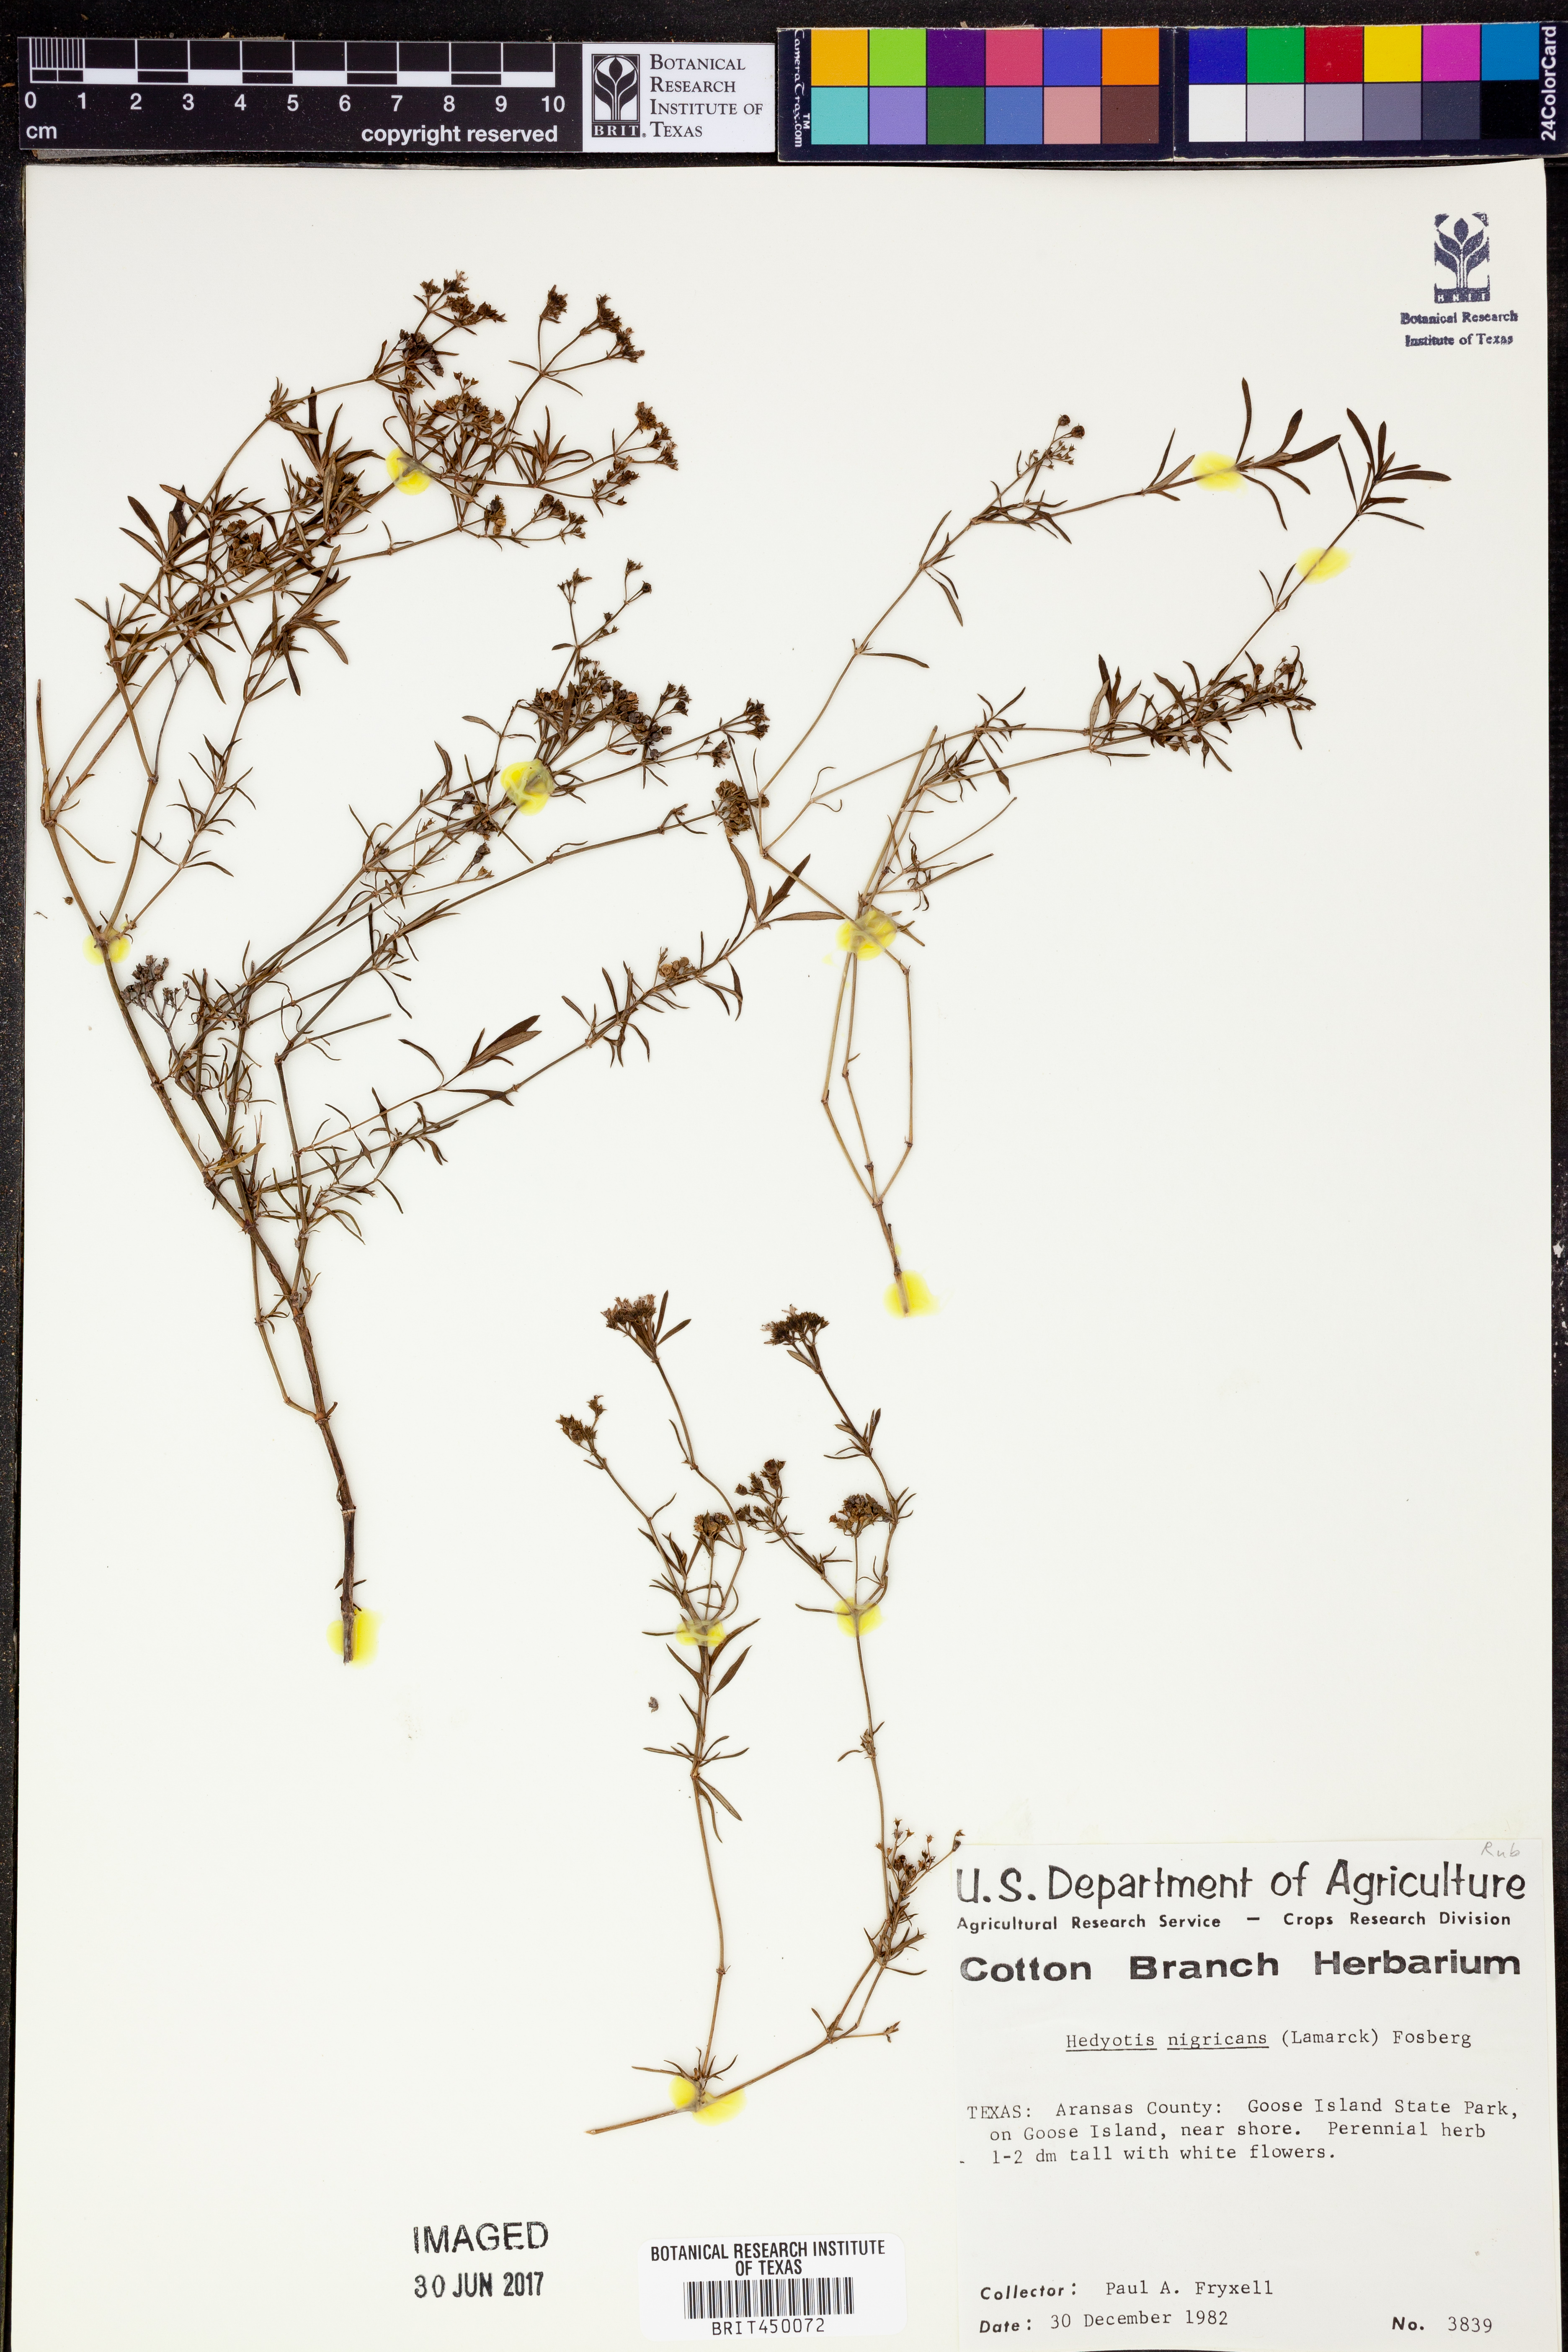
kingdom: Plantae
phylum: Tracheophyta
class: Magnoliopsida
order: Gentianales
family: Rubiaceae
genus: Stenaria
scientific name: Stenaria nigricans
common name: Diamondflowers
